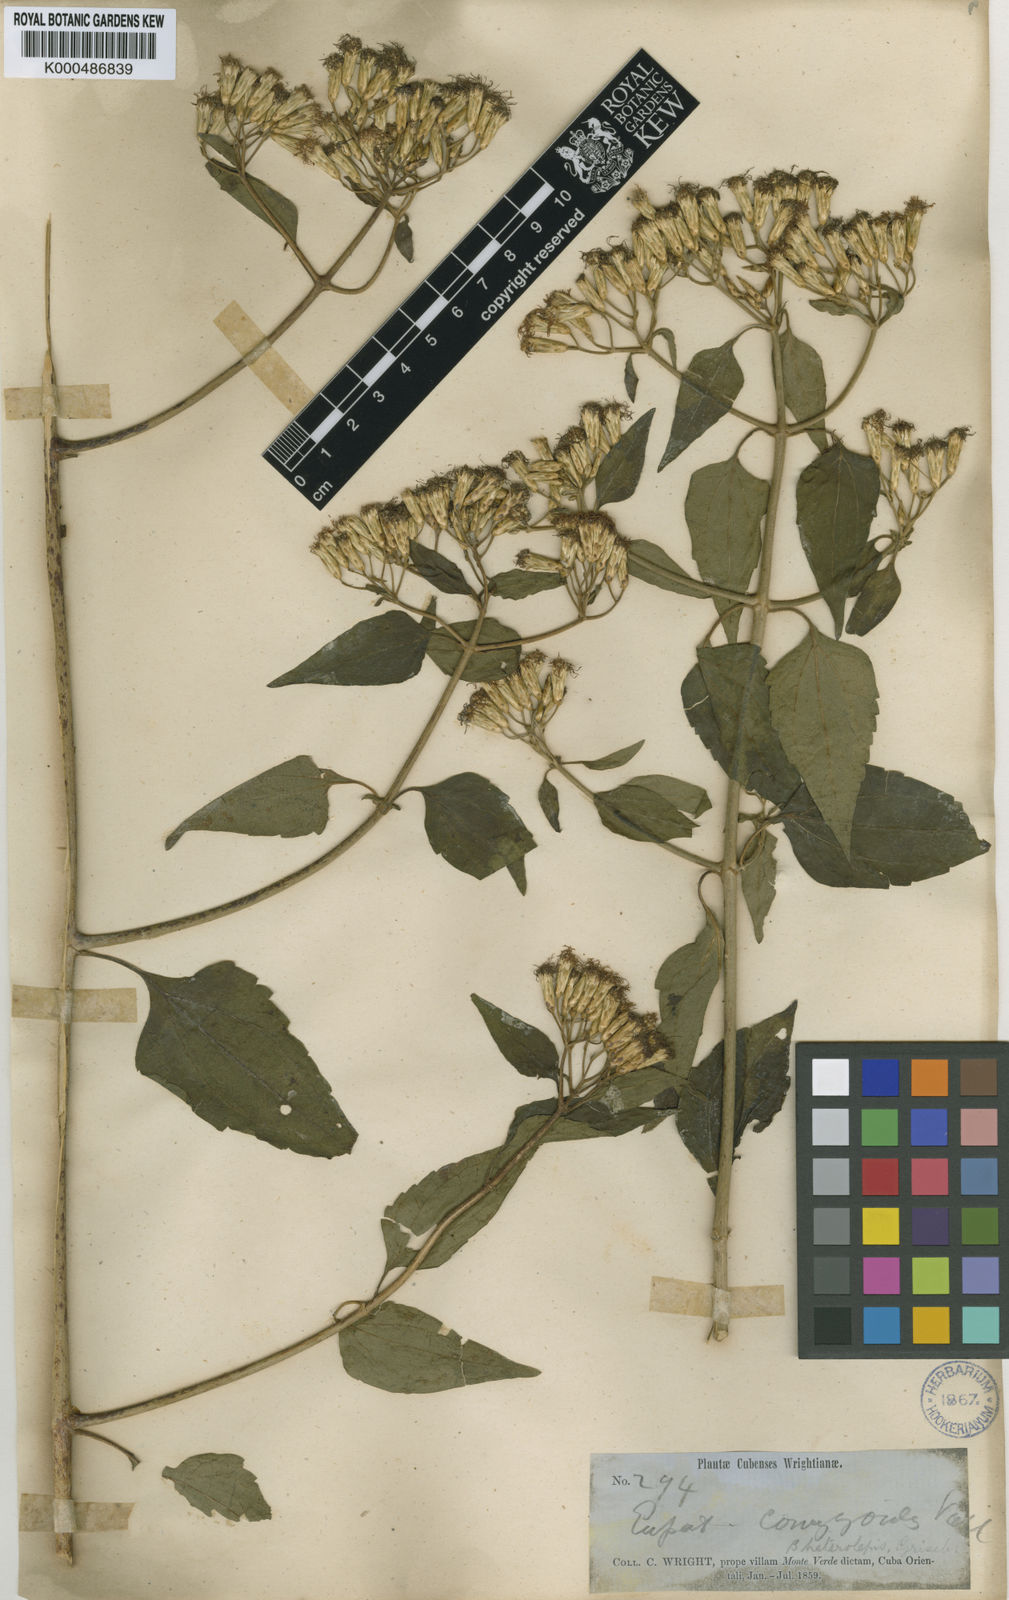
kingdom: Plantae
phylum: Tracheophyta
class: Magnoliopsida
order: Asterales
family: Asteraceae
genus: Chromolaena
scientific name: Chromolaena odorata
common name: Siamweed
